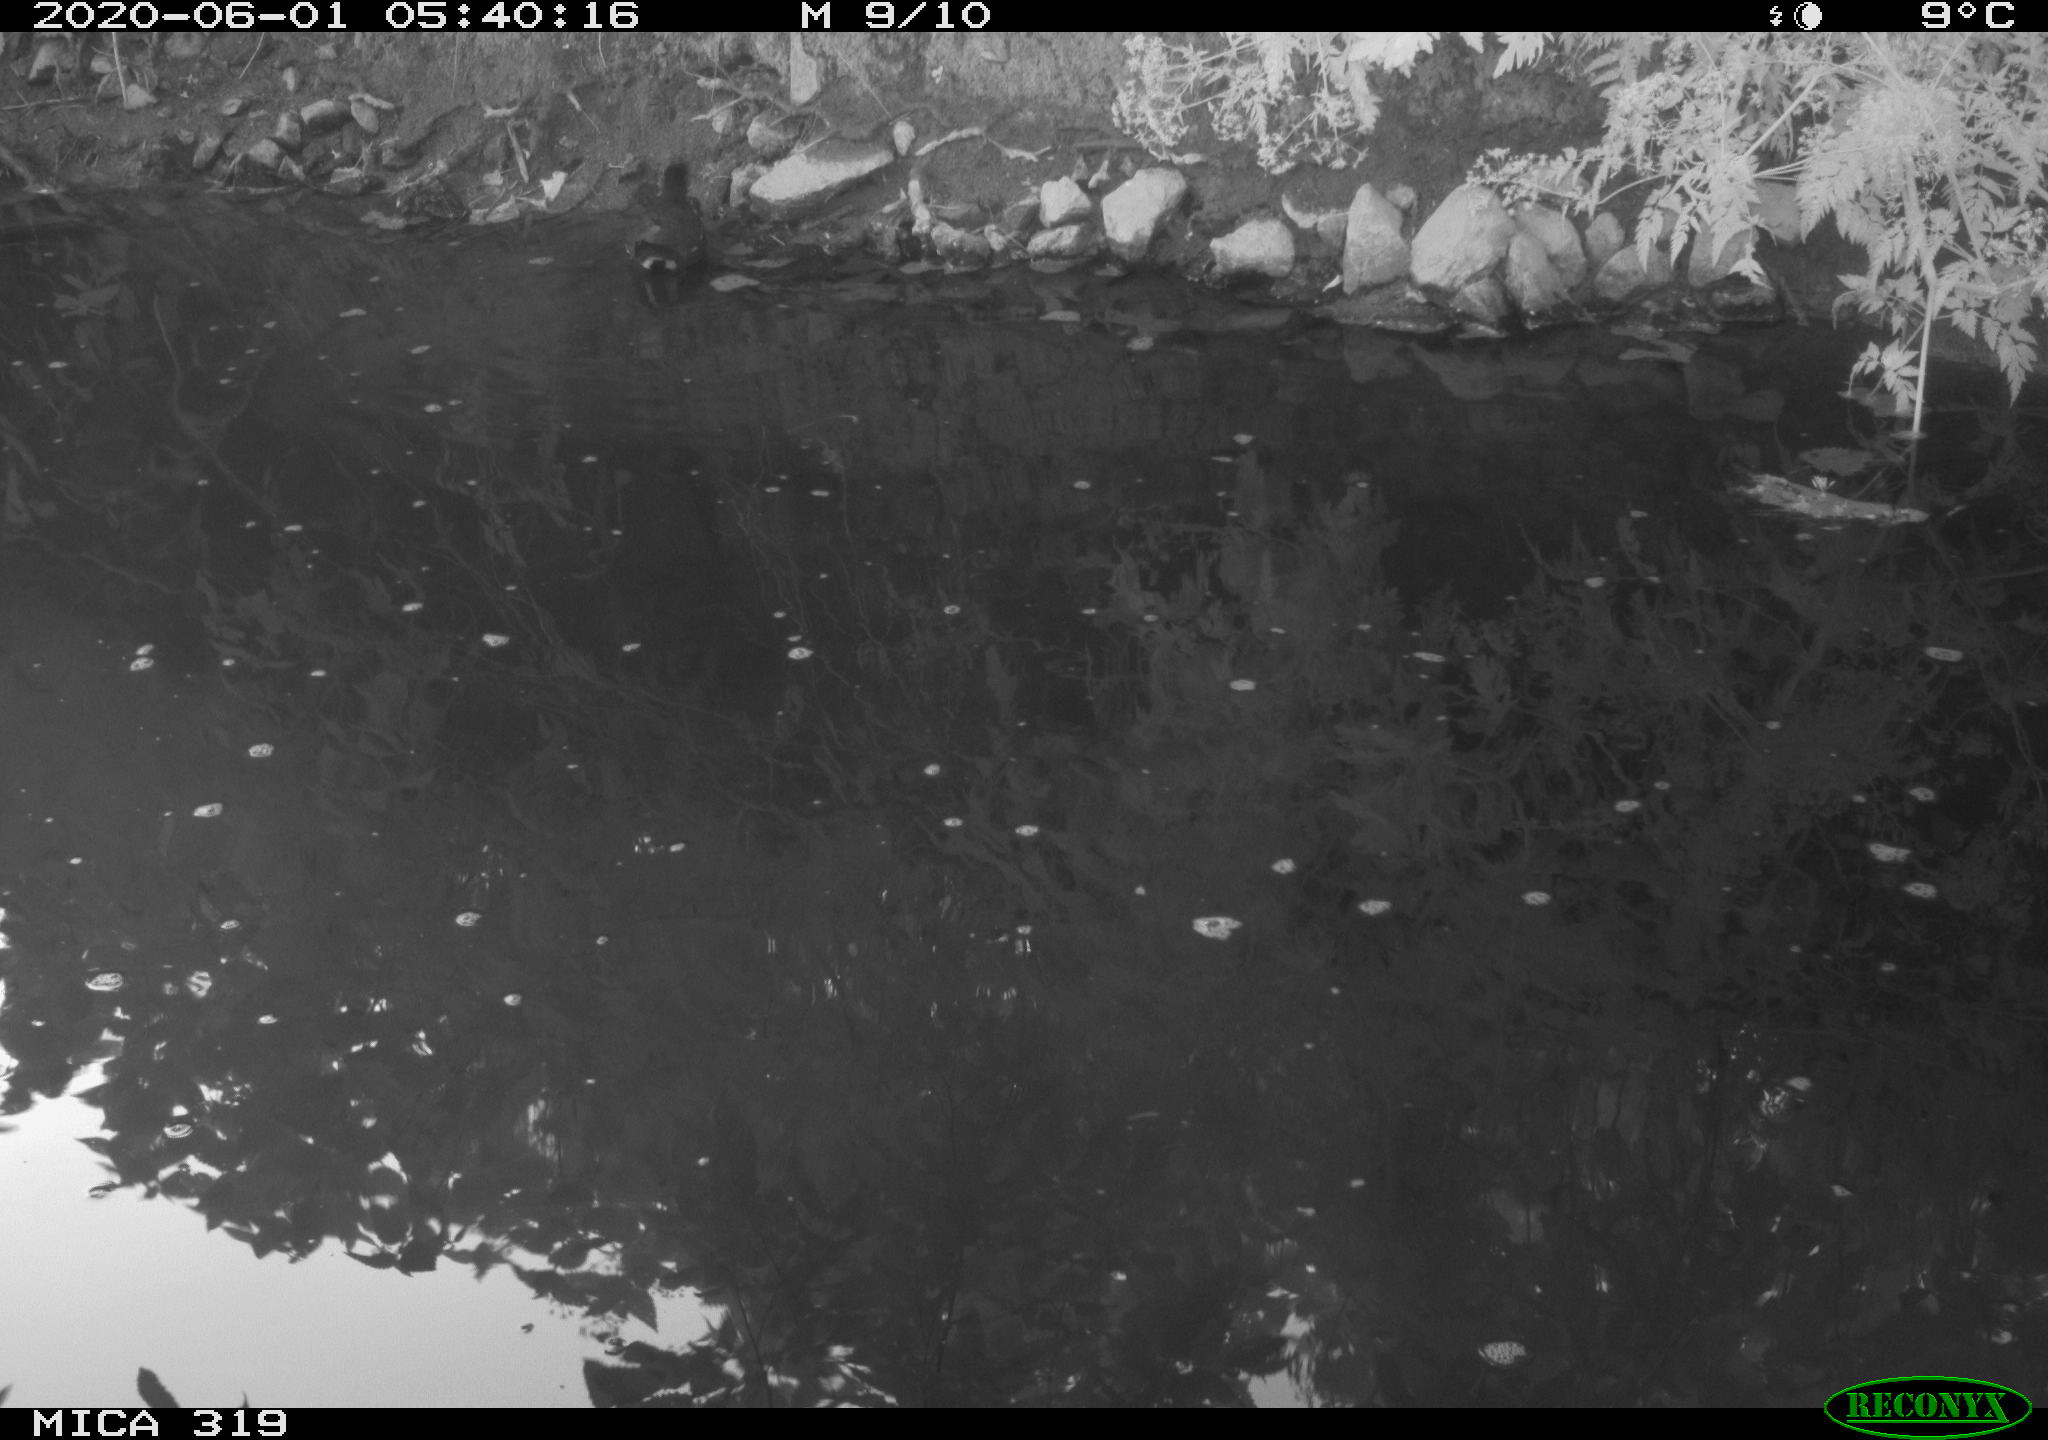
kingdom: Animalia
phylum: Chordata
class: Aves
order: Gruiformes
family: Rallidae
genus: Gallinula
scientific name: Gallinula chloropus
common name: Common moorhen
